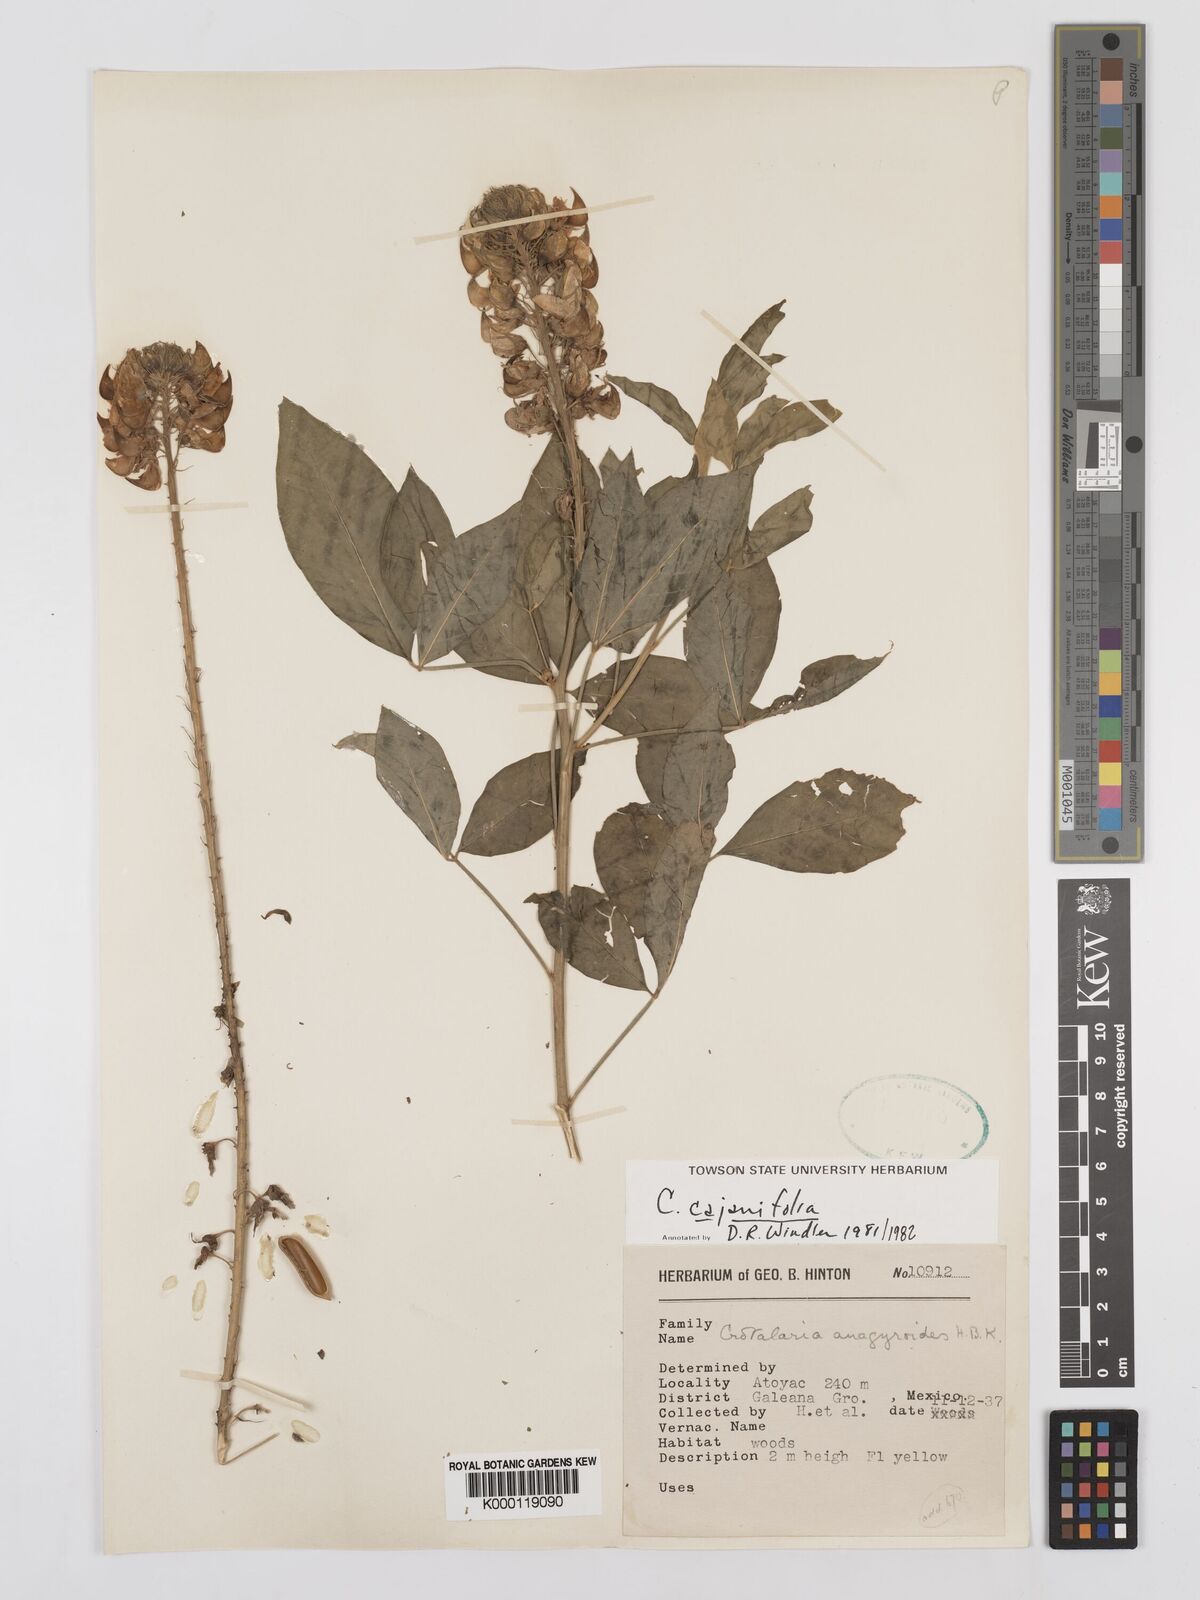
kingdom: Plantae
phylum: Tracheophyta
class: Magnoliopsida
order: Fabales
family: Fabaceae
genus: Crotalaria
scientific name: Crotalaria cajanifolia
